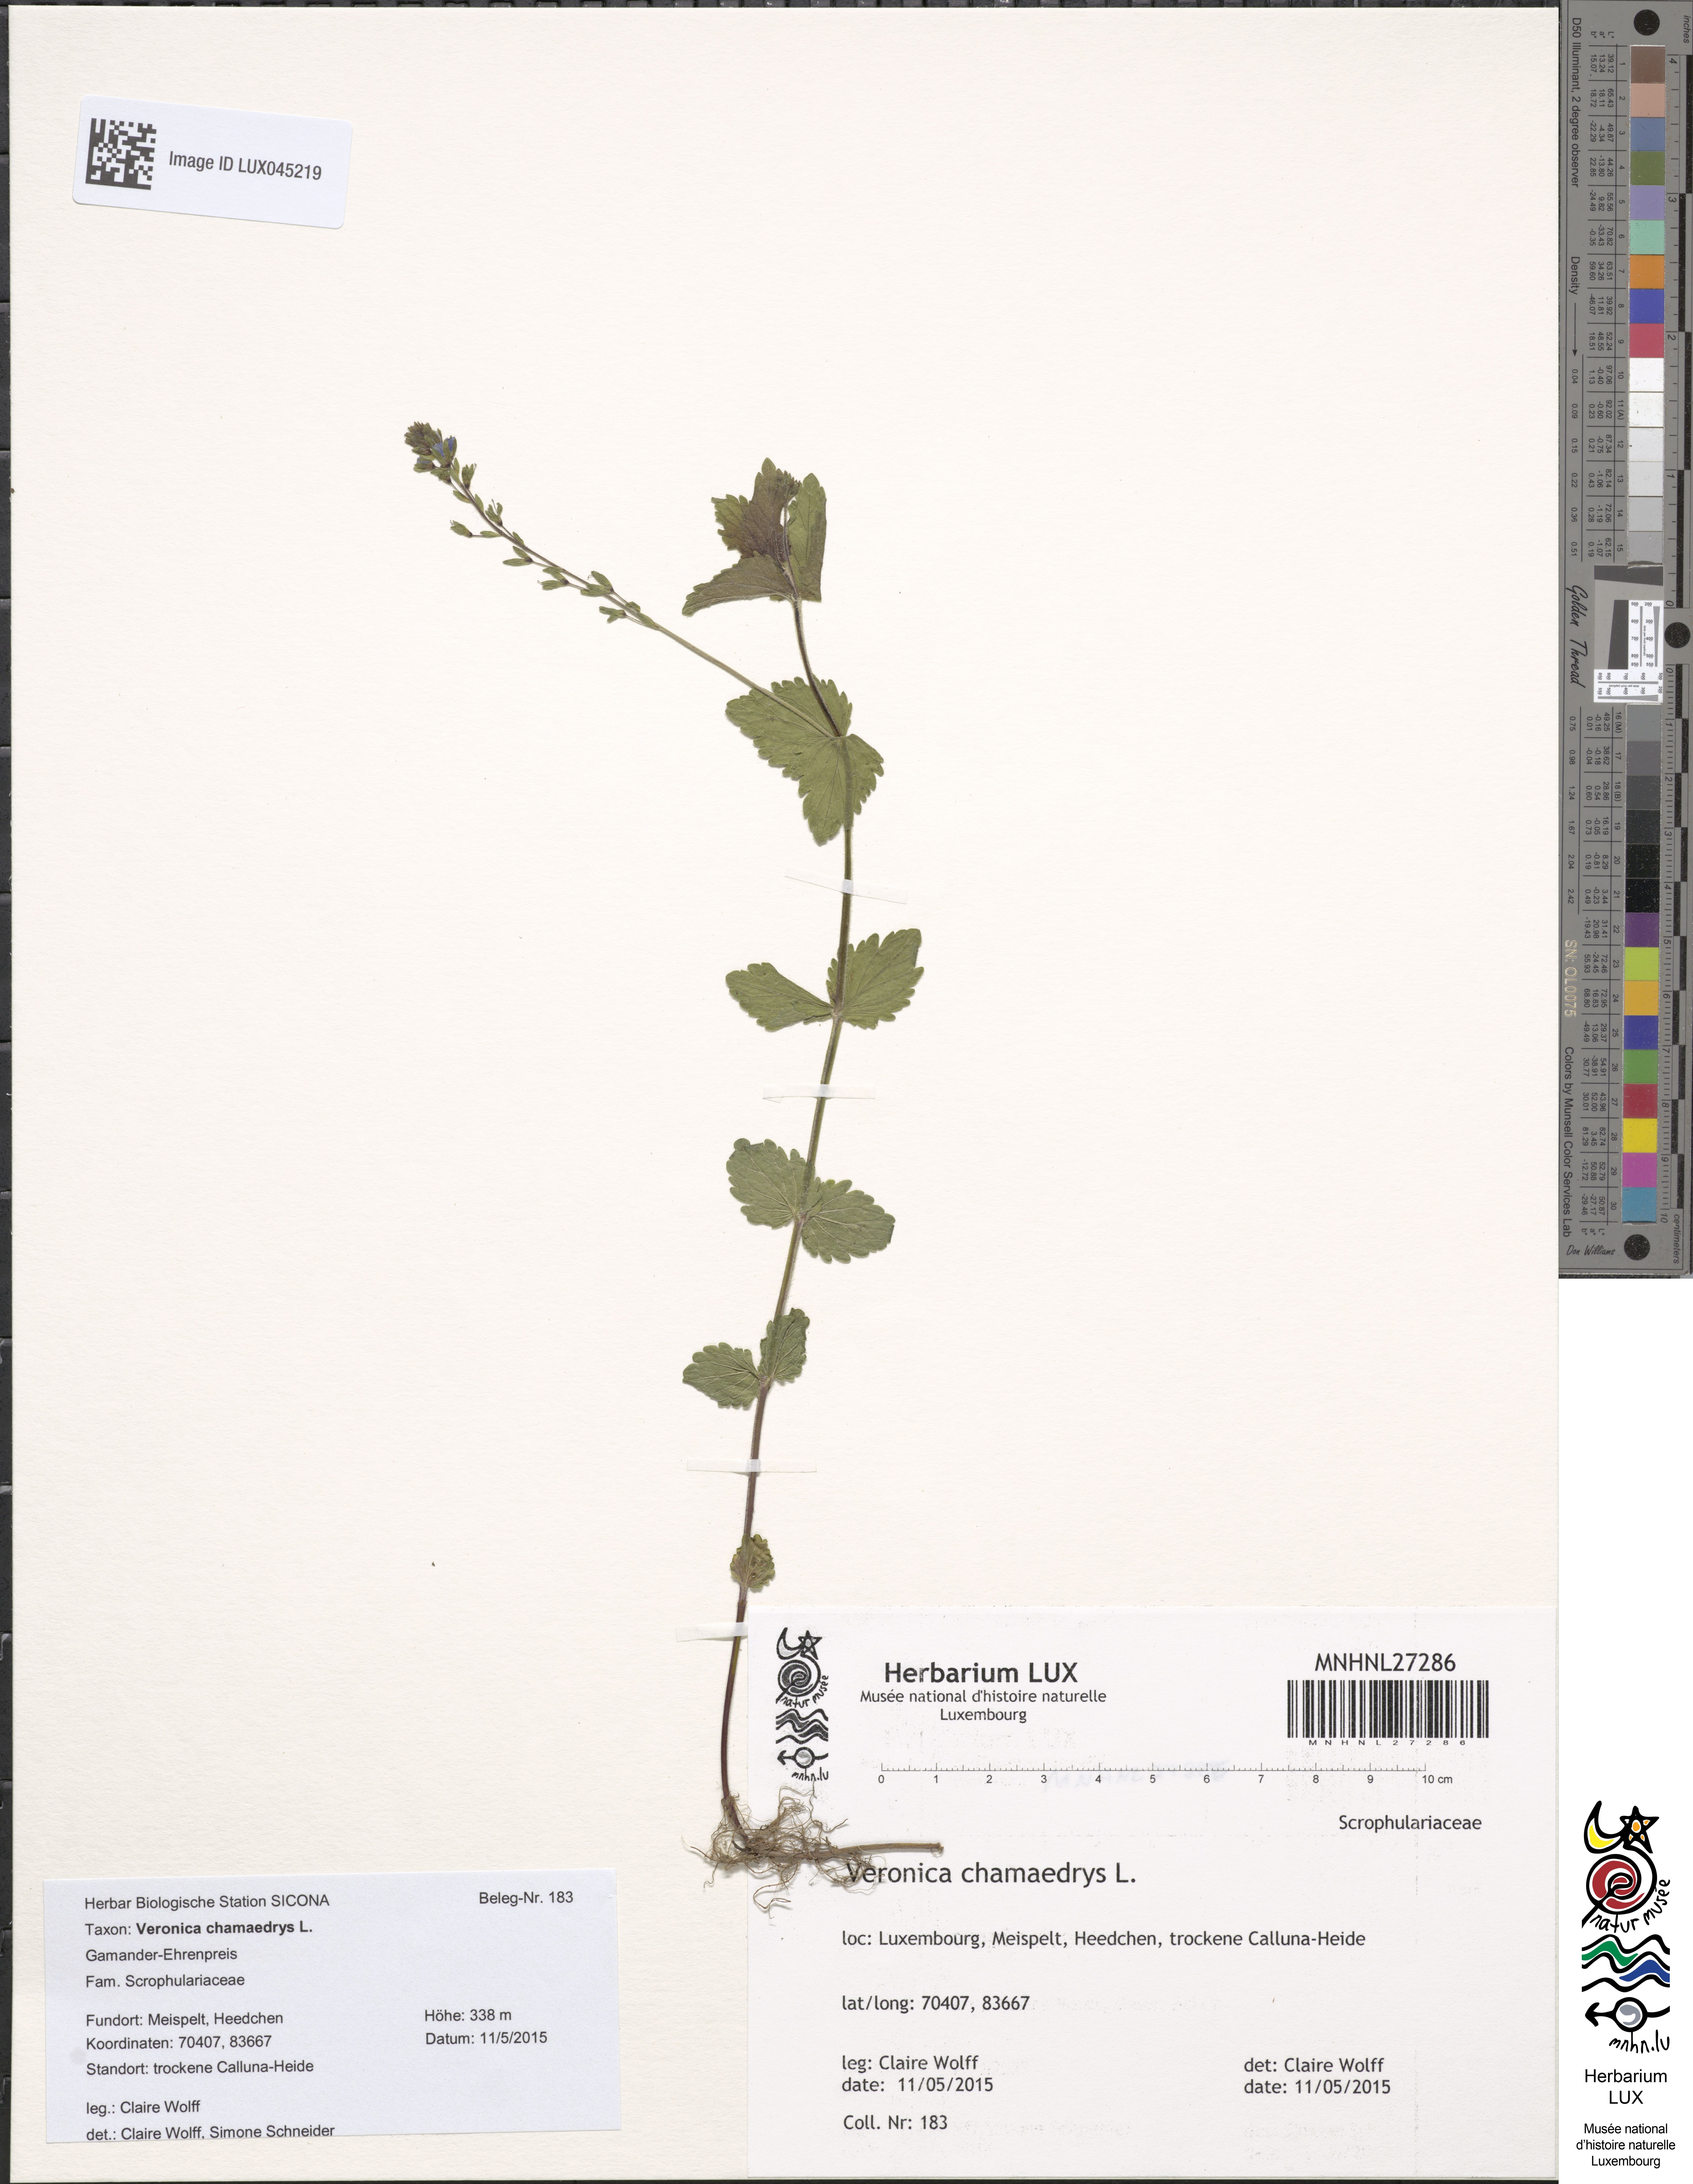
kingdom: Plantae
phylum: Tracheophyta
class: Magnoliopsida
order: Lamiales
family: Plantaginaceae
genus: Veronica
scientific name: Veronica chamaedrys
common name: Germander speedwell
